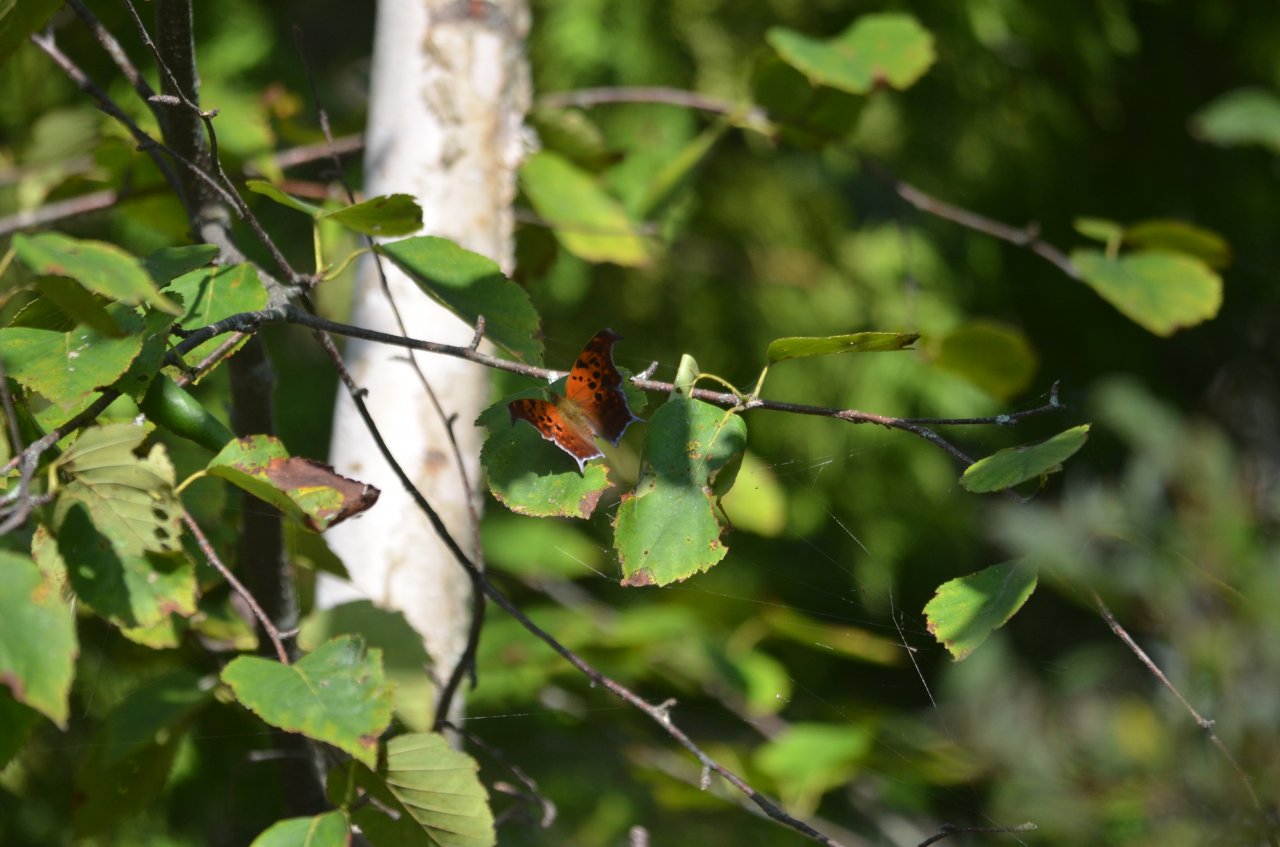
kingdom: Animalia
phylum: Arthropoda
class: Insecta
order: Lepidoptera
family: Nymphalidae
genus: Polygonia
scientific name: Polygonia interrogationis
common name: Question Mark
